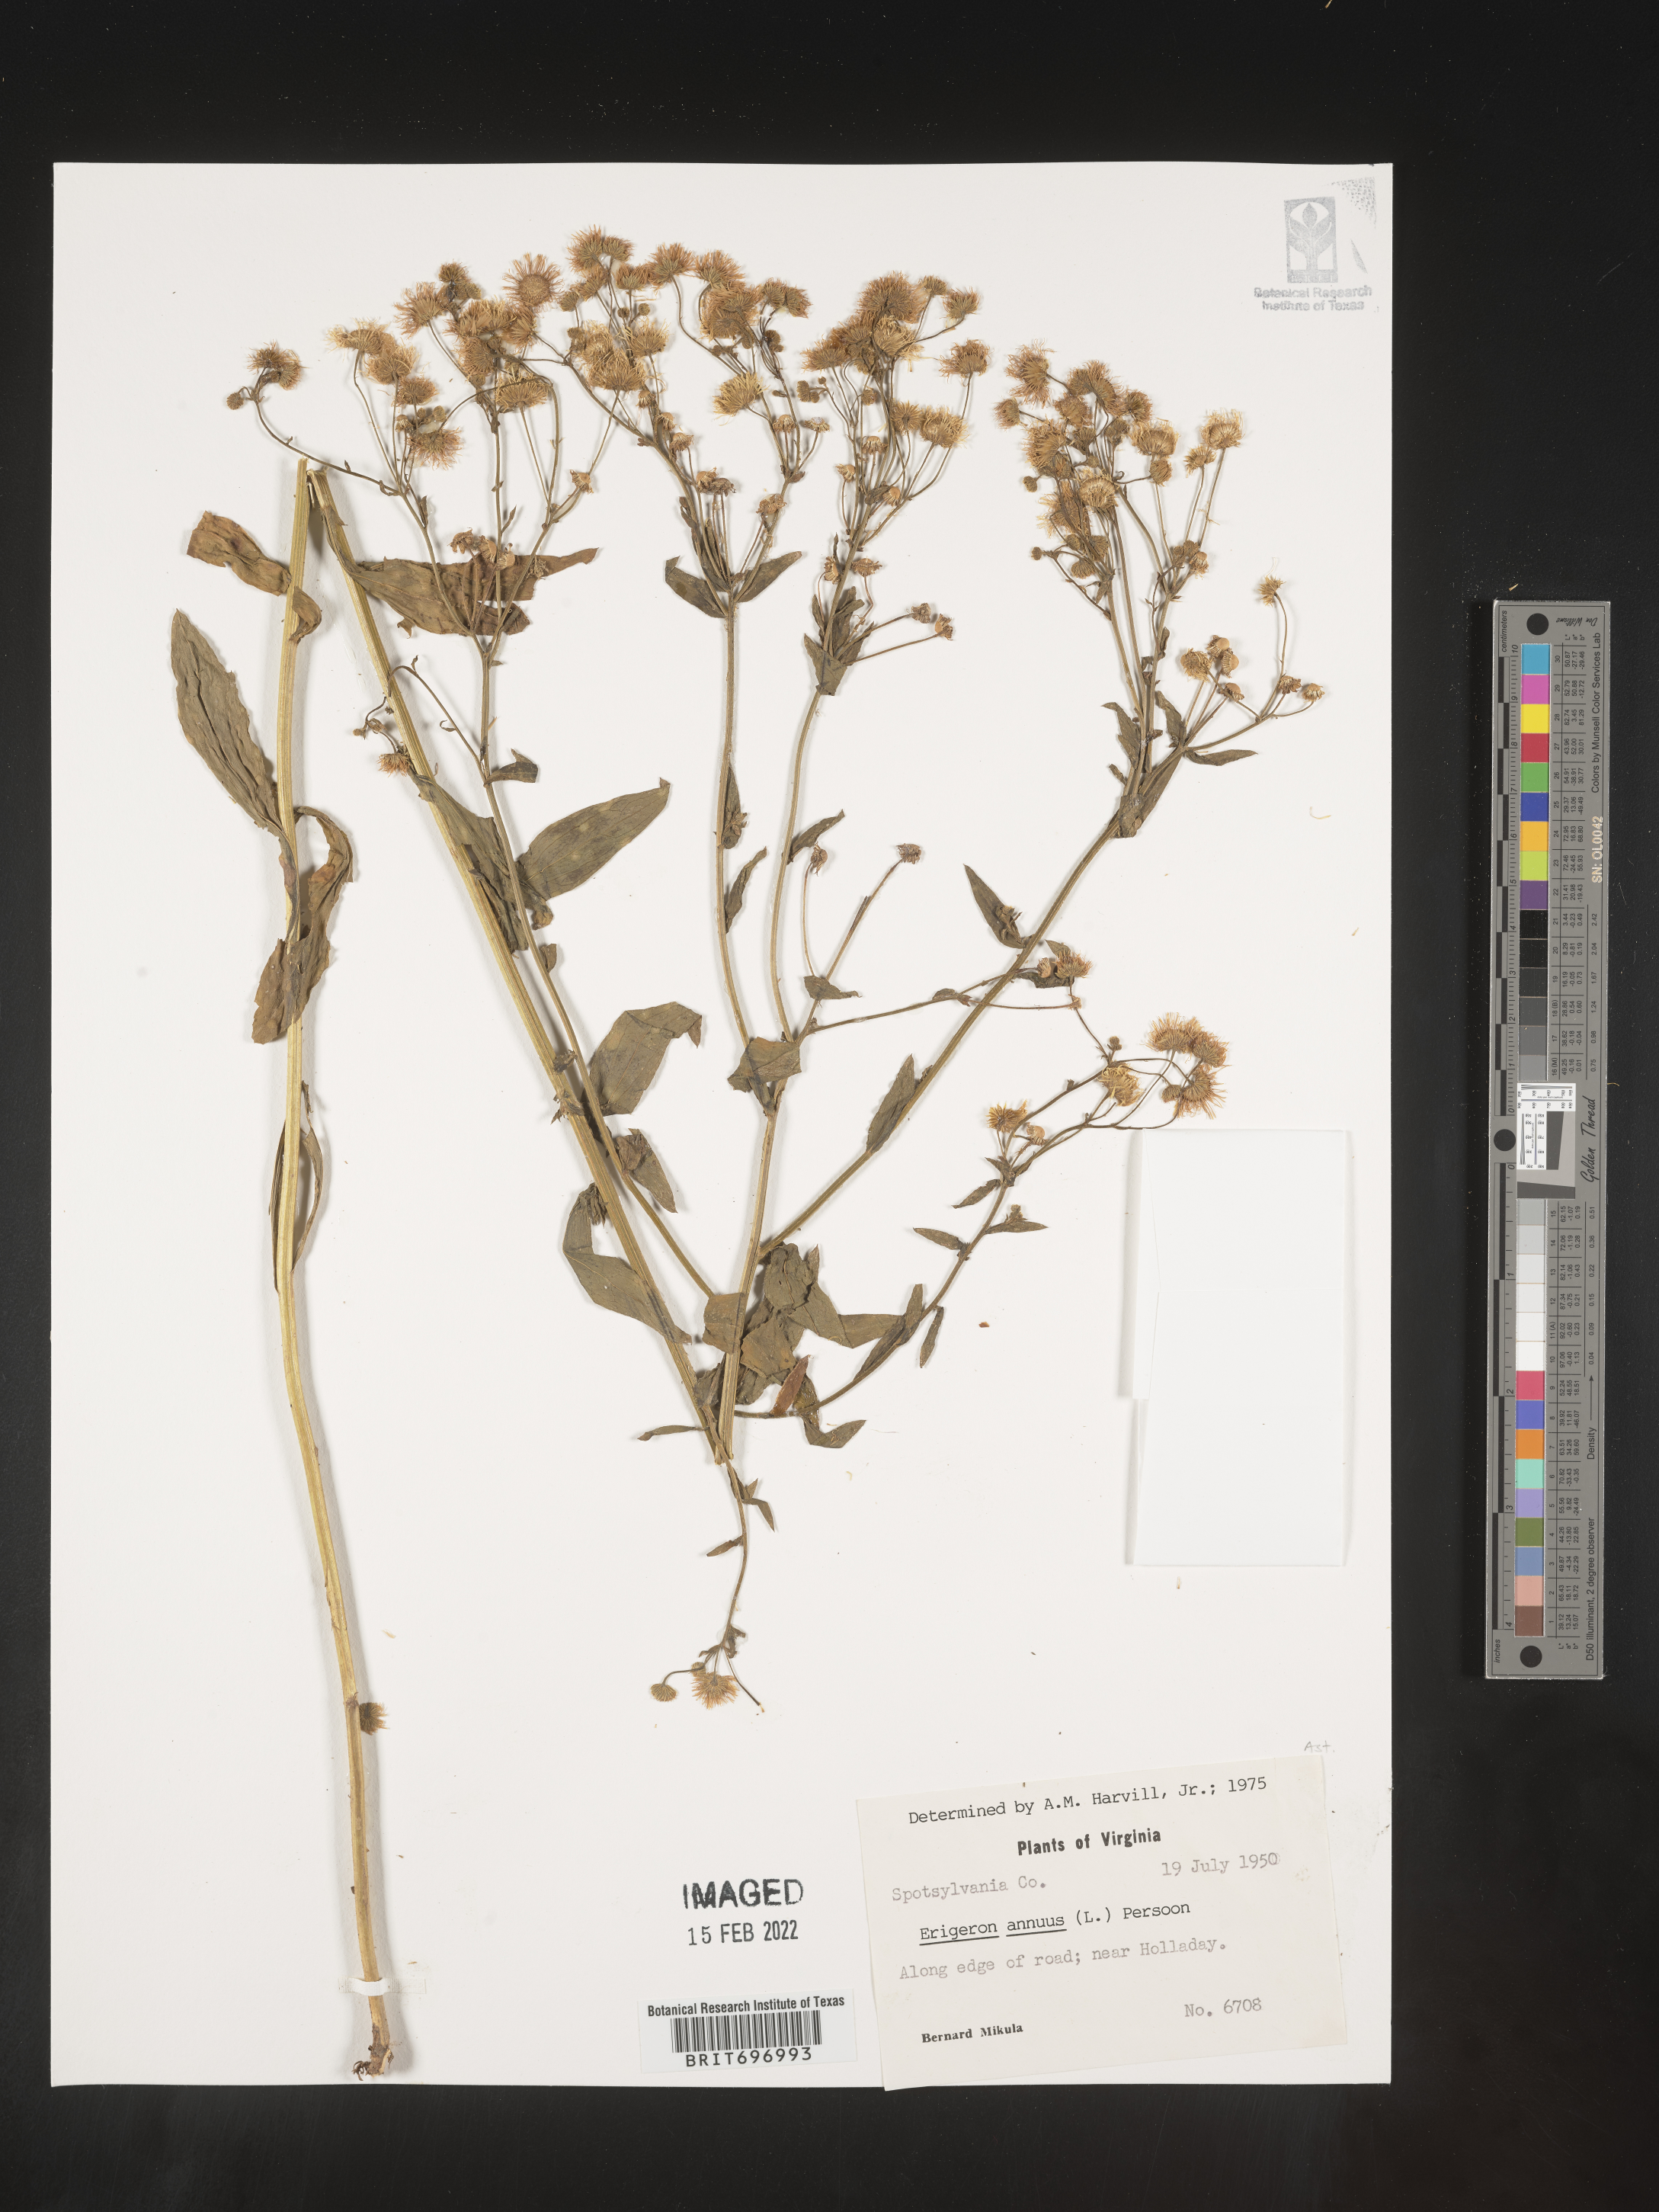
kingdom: Plantae
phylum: Tracheophyta
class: Magnoliopsida
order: Asterales
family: Asteraceae
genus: Erigeron
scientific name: Erigeron annuus
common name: Tall fleabane
